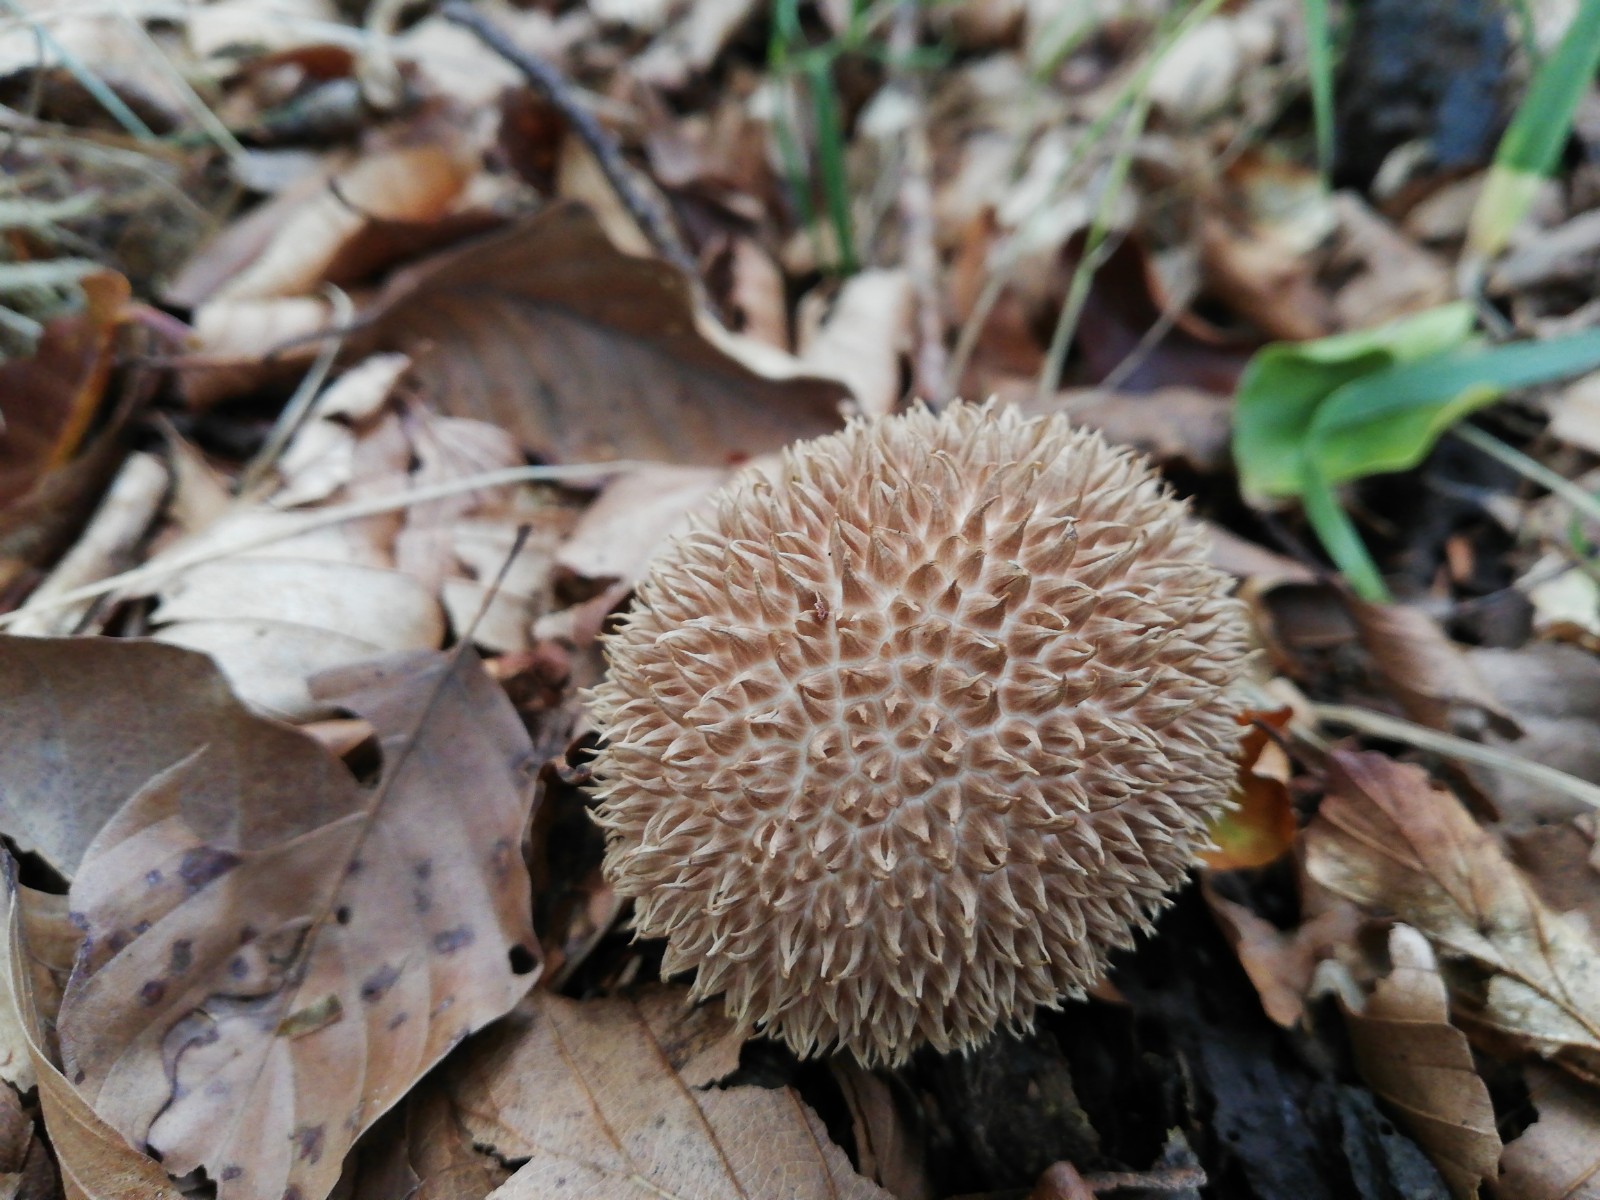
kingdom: Fungi
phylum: Basidiomycota
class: Agaricomycetes
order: Agaricales
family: Lycoperdaceae
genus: Lycoperdon
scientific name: Lycoperdon echinatum
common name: pindsvine-støvbold
